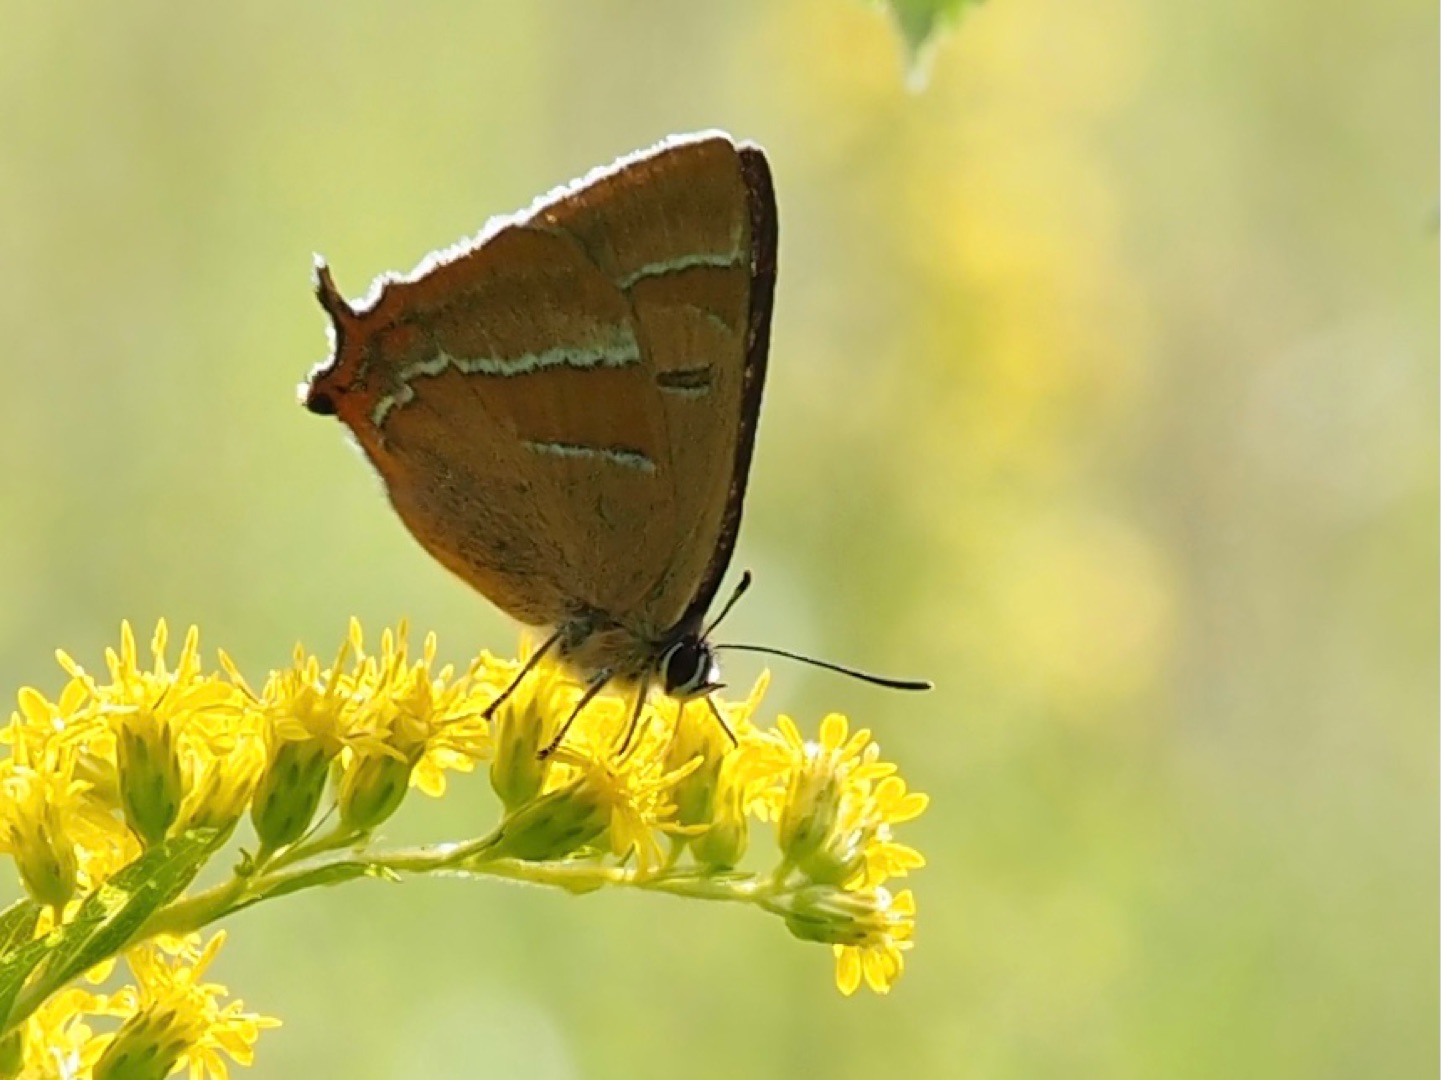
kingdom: Animalia
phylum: Arthropoda
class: Insecta
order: Lepidoptera
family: Lycaenidae
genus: Thecla
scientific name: Thecla betulae
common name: Guldhale
